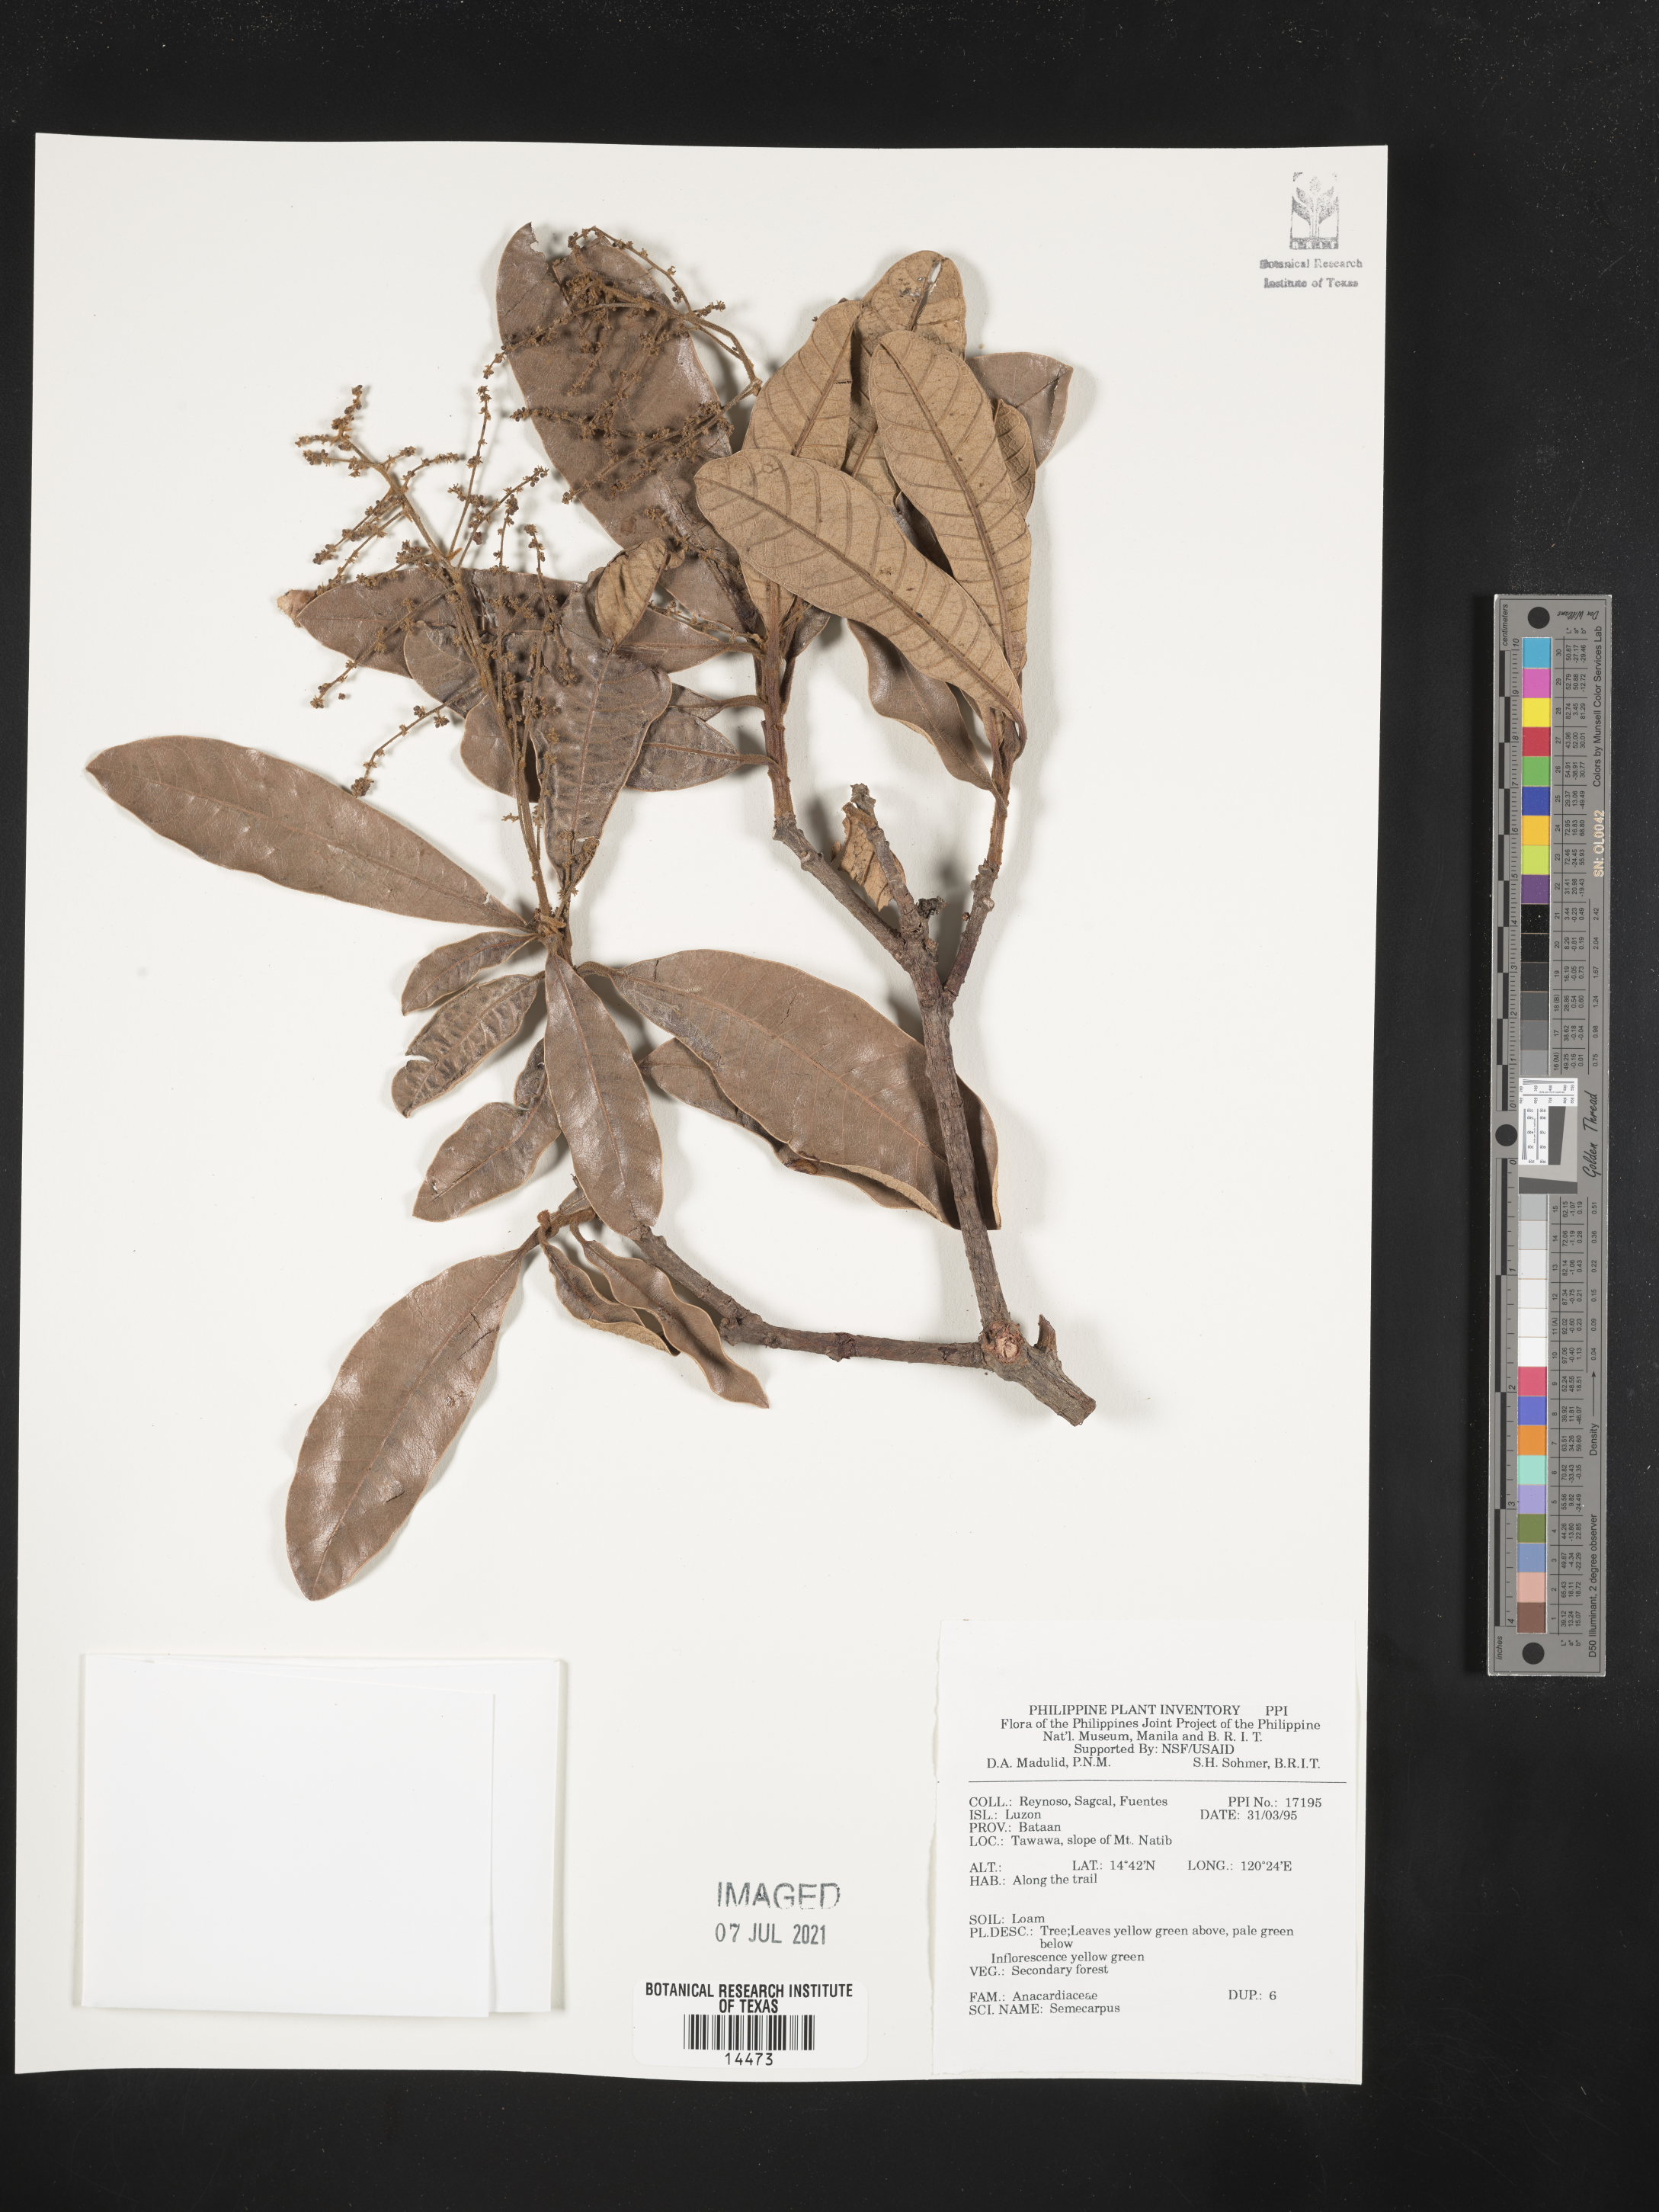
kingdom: Plantae
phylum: Tracheophyta
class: Magnoliopsida
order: Sapindales
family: Anacardiaceae
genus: Semecarpus
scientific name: Semecarpus
